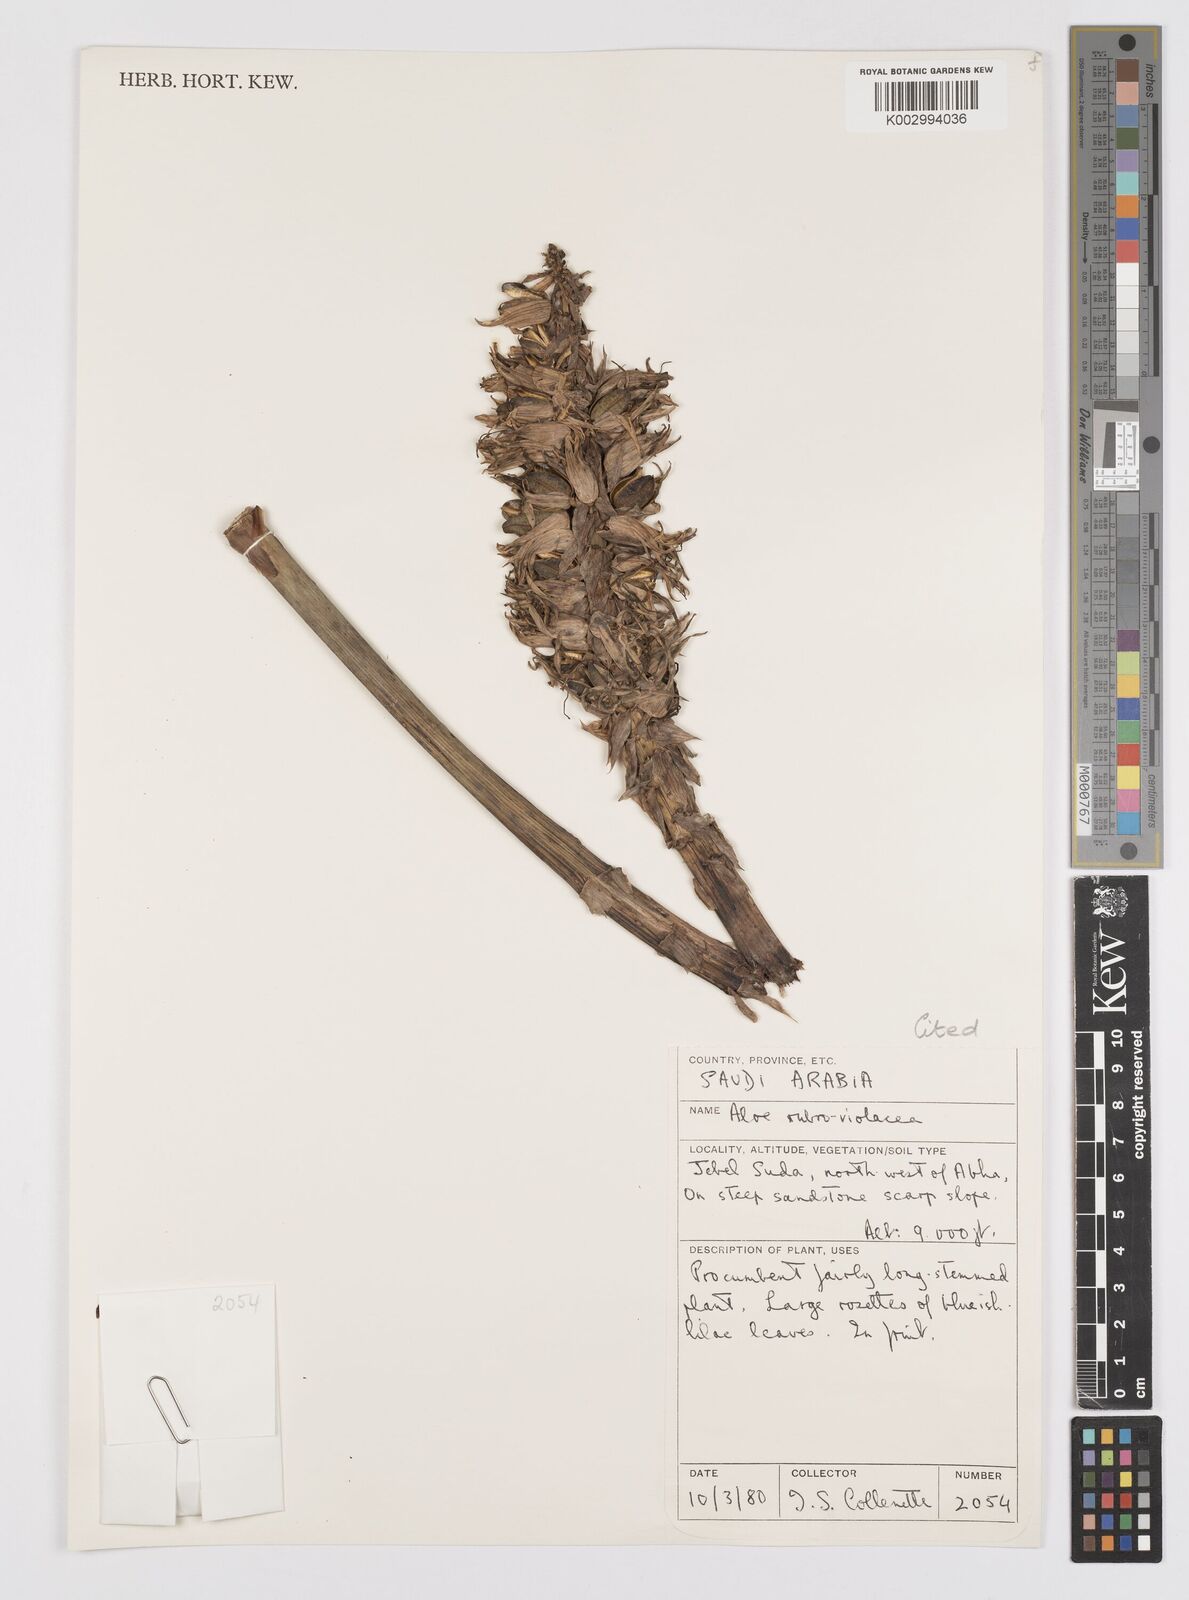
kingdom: Plantae
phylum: Tracheophyta
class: Liliopsida
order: Asparagales
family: Asphodelaceae
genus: Aloe
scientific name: Aloe rubroviolacea
